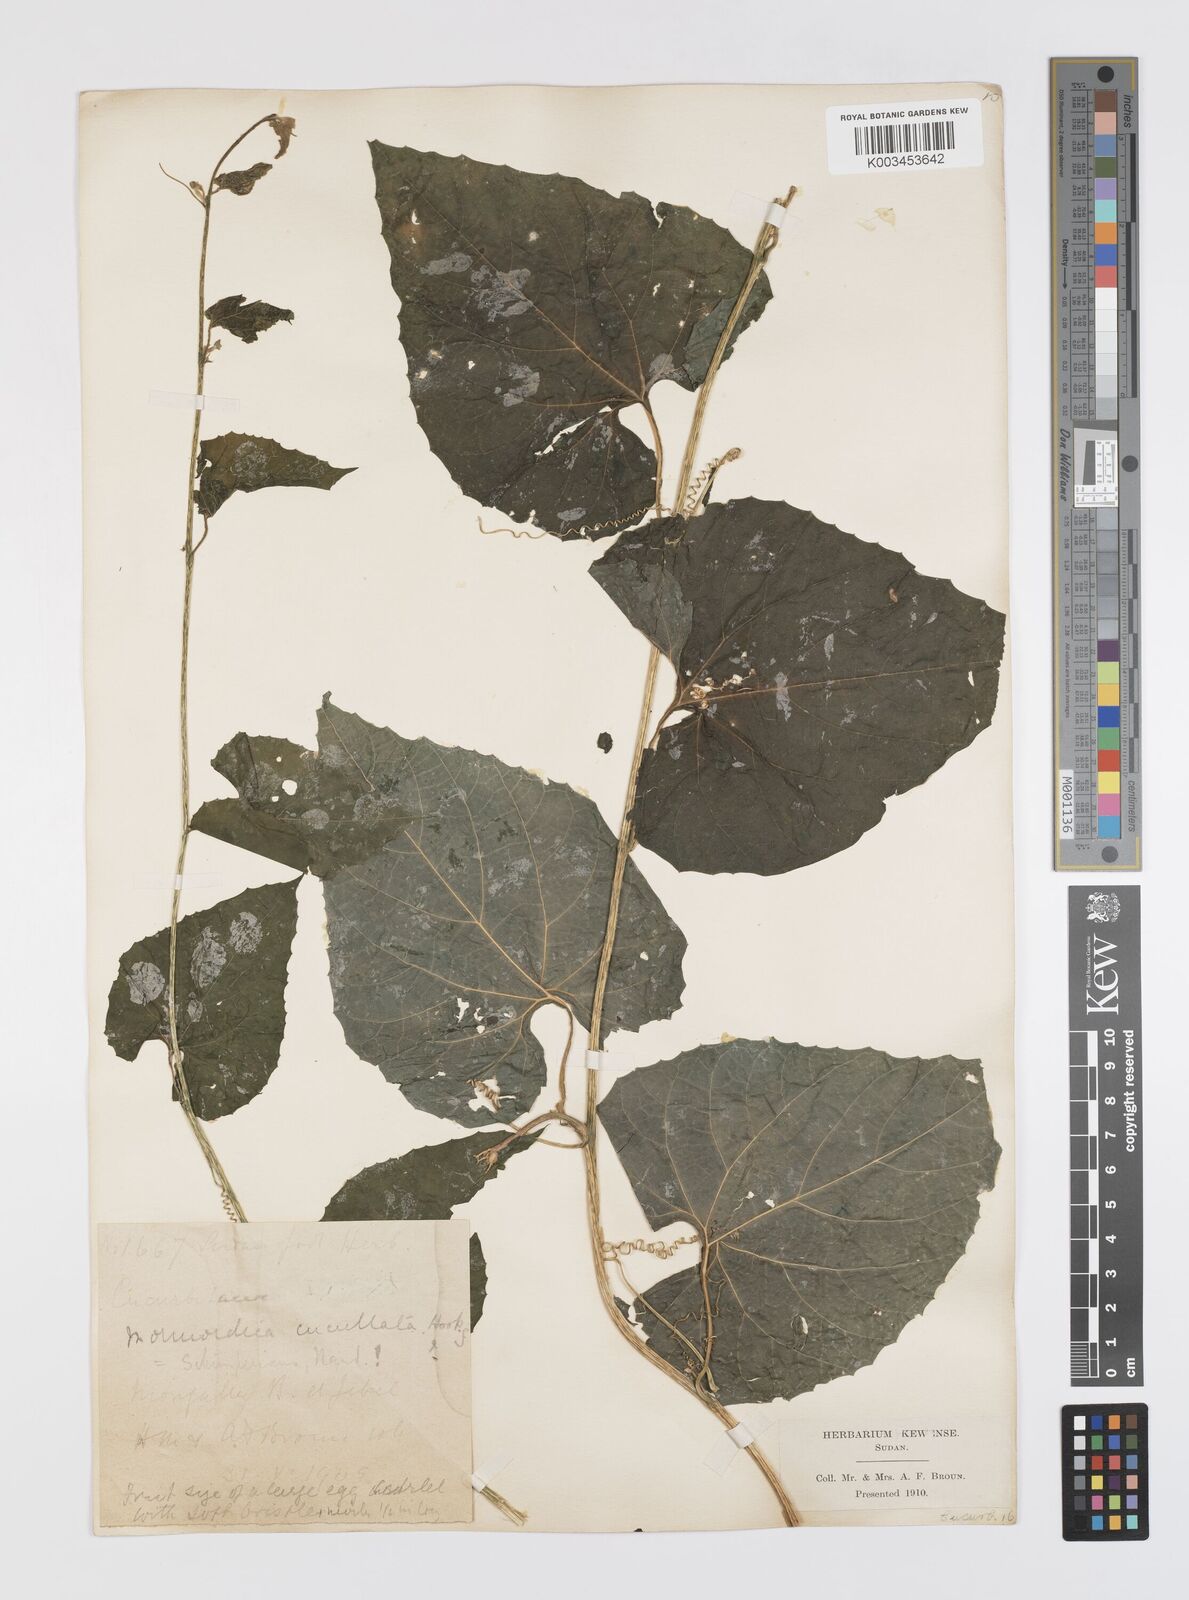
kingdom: Plantae
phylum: Tracheophyta
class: Magnoliopsida
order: Cucurbitales
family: Cucurbitaceae
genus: Momordica
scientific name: Momordica foetida
